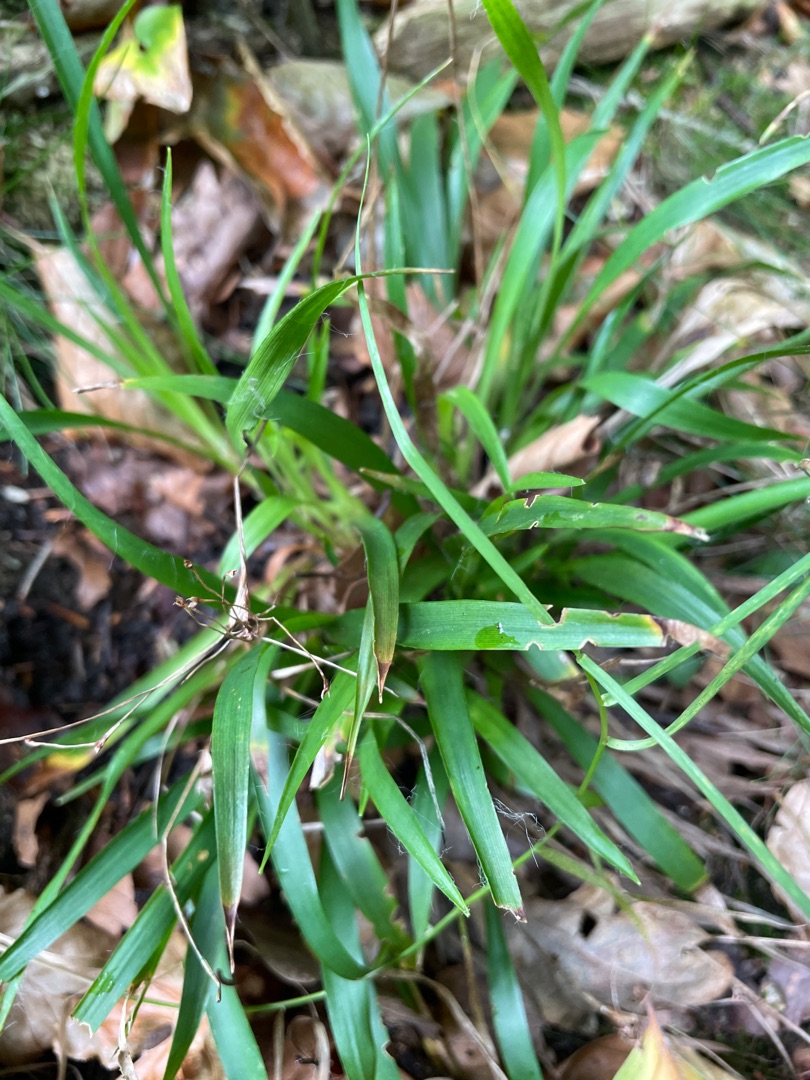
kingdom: Plantae
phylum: Tracheophyta
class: Liliopsida
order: Poales
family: Juncaceae
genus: Luzula
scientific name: Luzula pilosa
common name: Håret frytle
